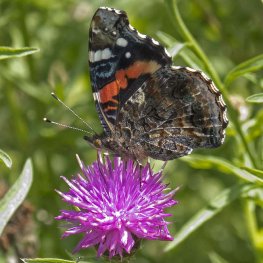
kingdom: Animalia
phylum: Arthropoda
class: Insecta
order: Lepidoptera
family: Nymphalidae
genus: Vanessa
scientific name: Vanessa atalanta
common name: Red Admiral
